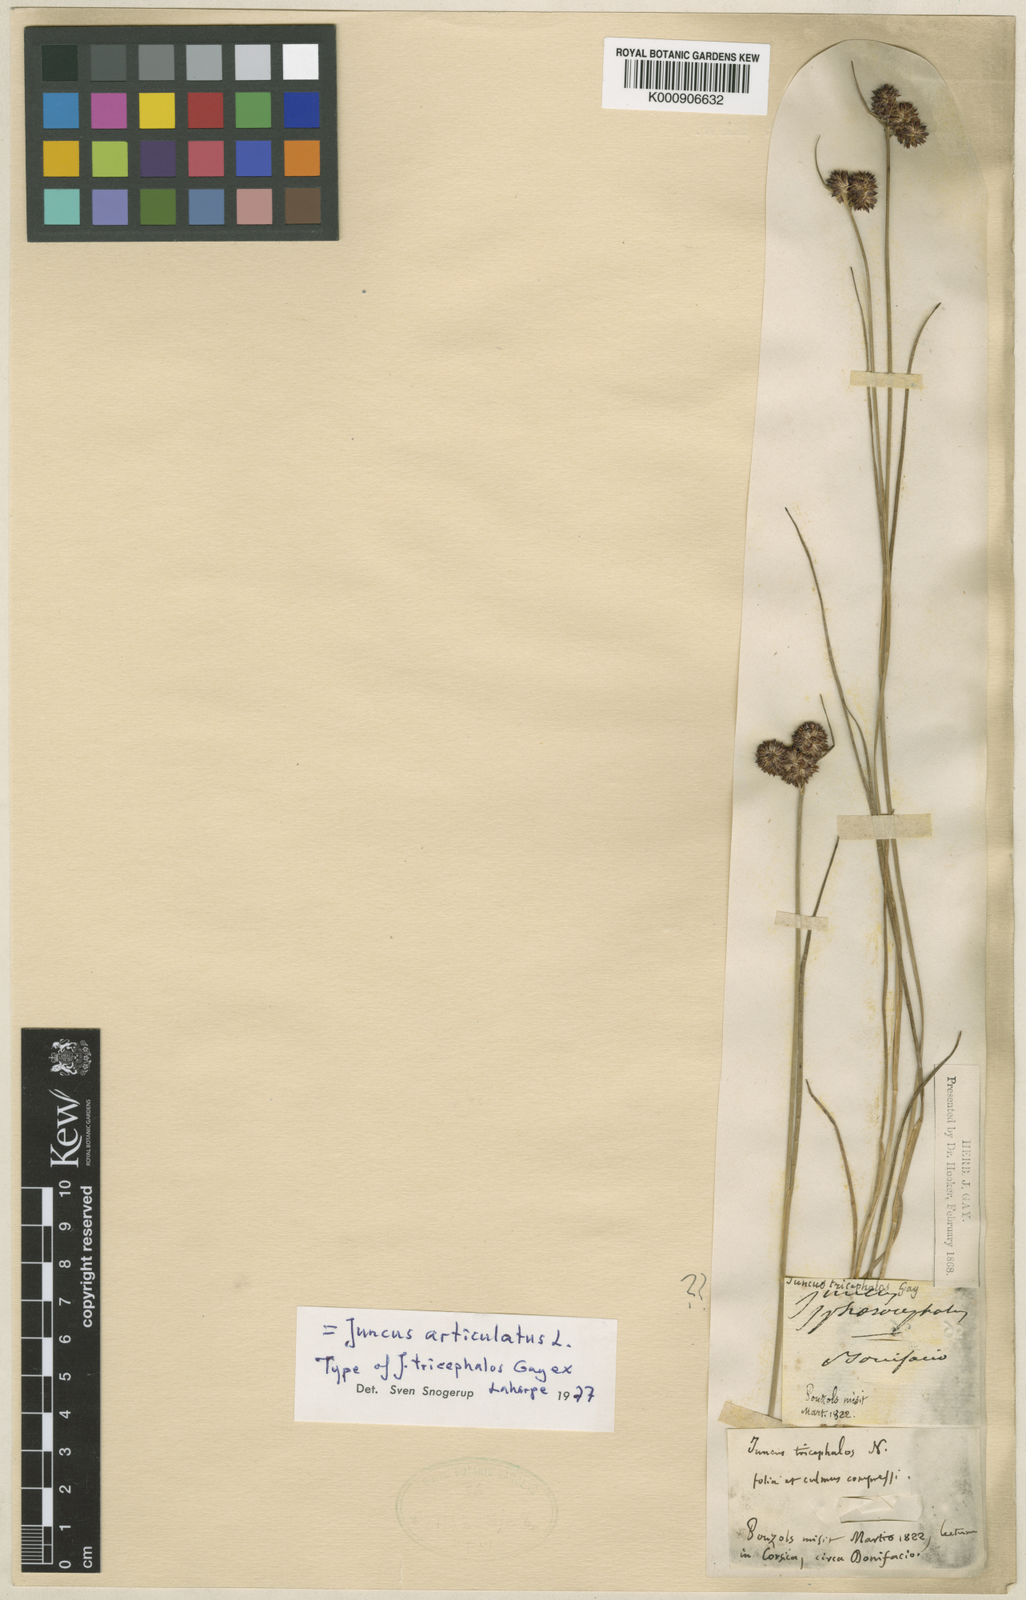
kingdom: Plantae
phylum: Tracheophyta
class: Liliopsida
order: Poales
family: Juncaceae
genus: Juncus
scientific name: Juncus articulatus
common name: Jointed rush
